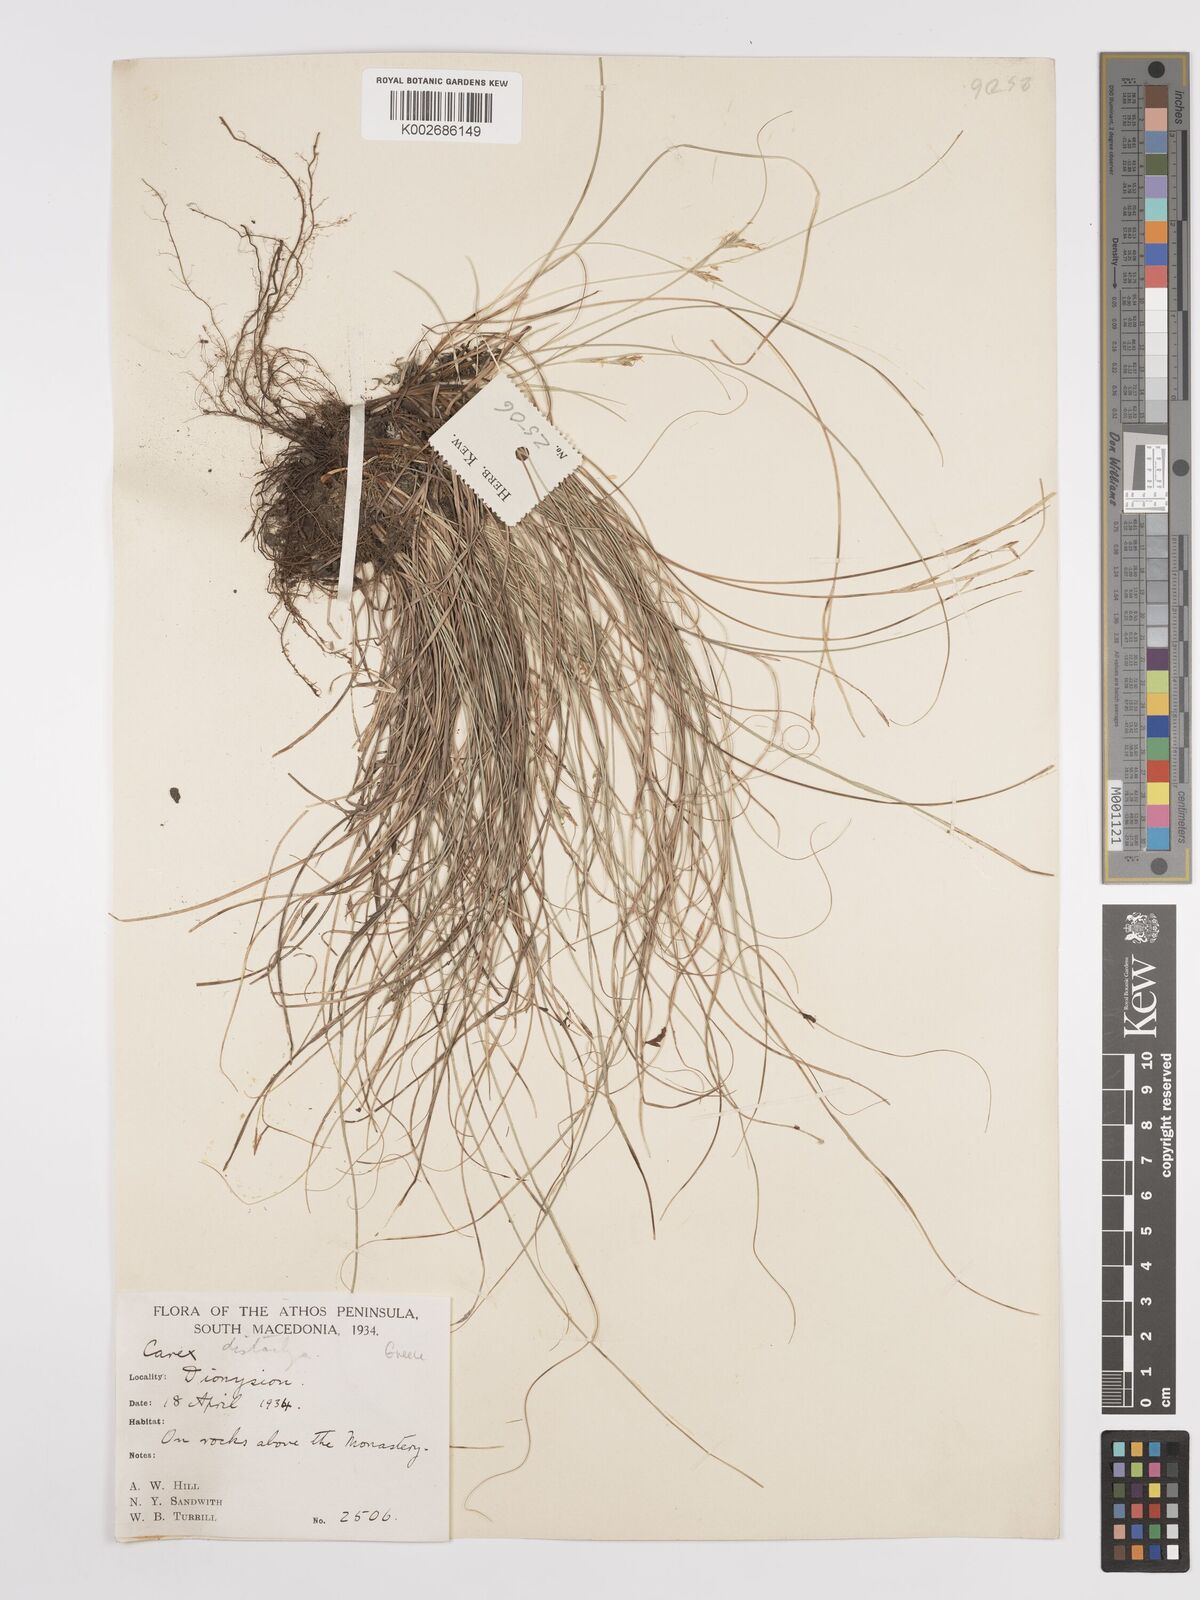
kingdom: Plantae
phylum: Tracheophyta
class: Liliopsida
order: Poales
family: Cyperaceae
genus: Carex
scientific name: Carex distachya
